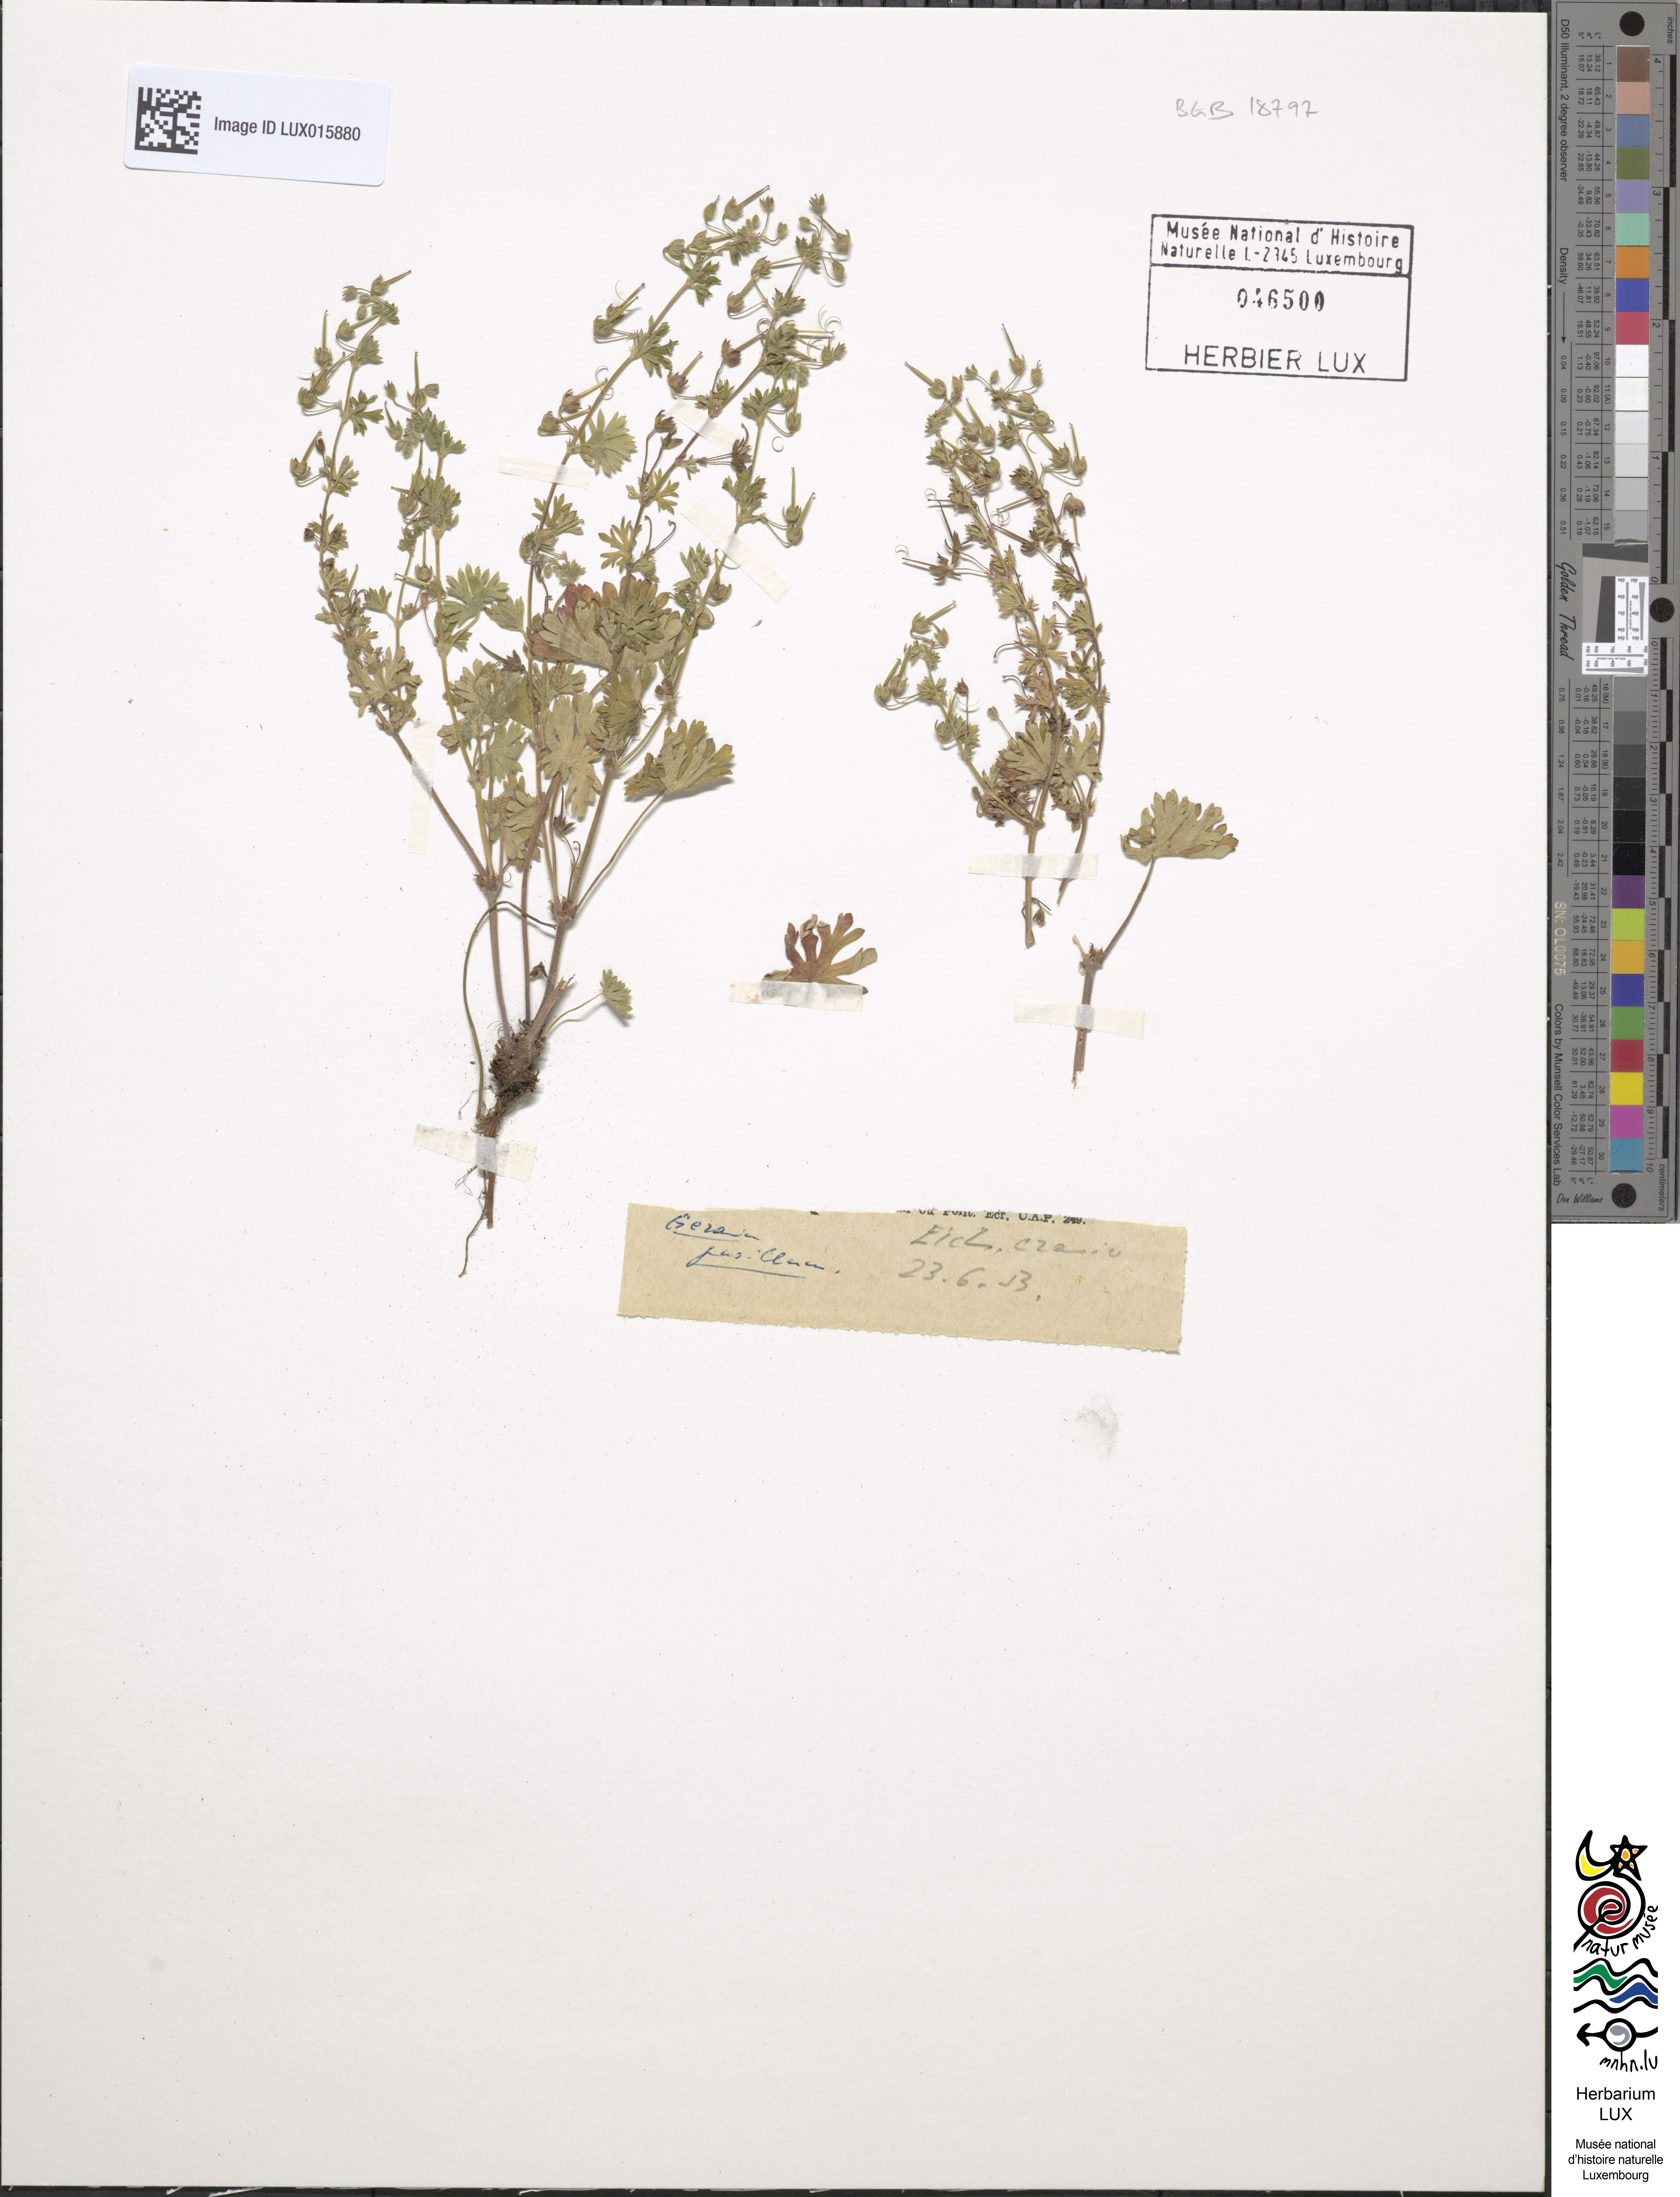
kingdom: Plantae
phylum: Tracheophyta
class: Magnoliopsida
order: Geraniales
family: Geraniaceae
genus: Geranium
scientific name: Geranium pusillum
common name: Small geranium
